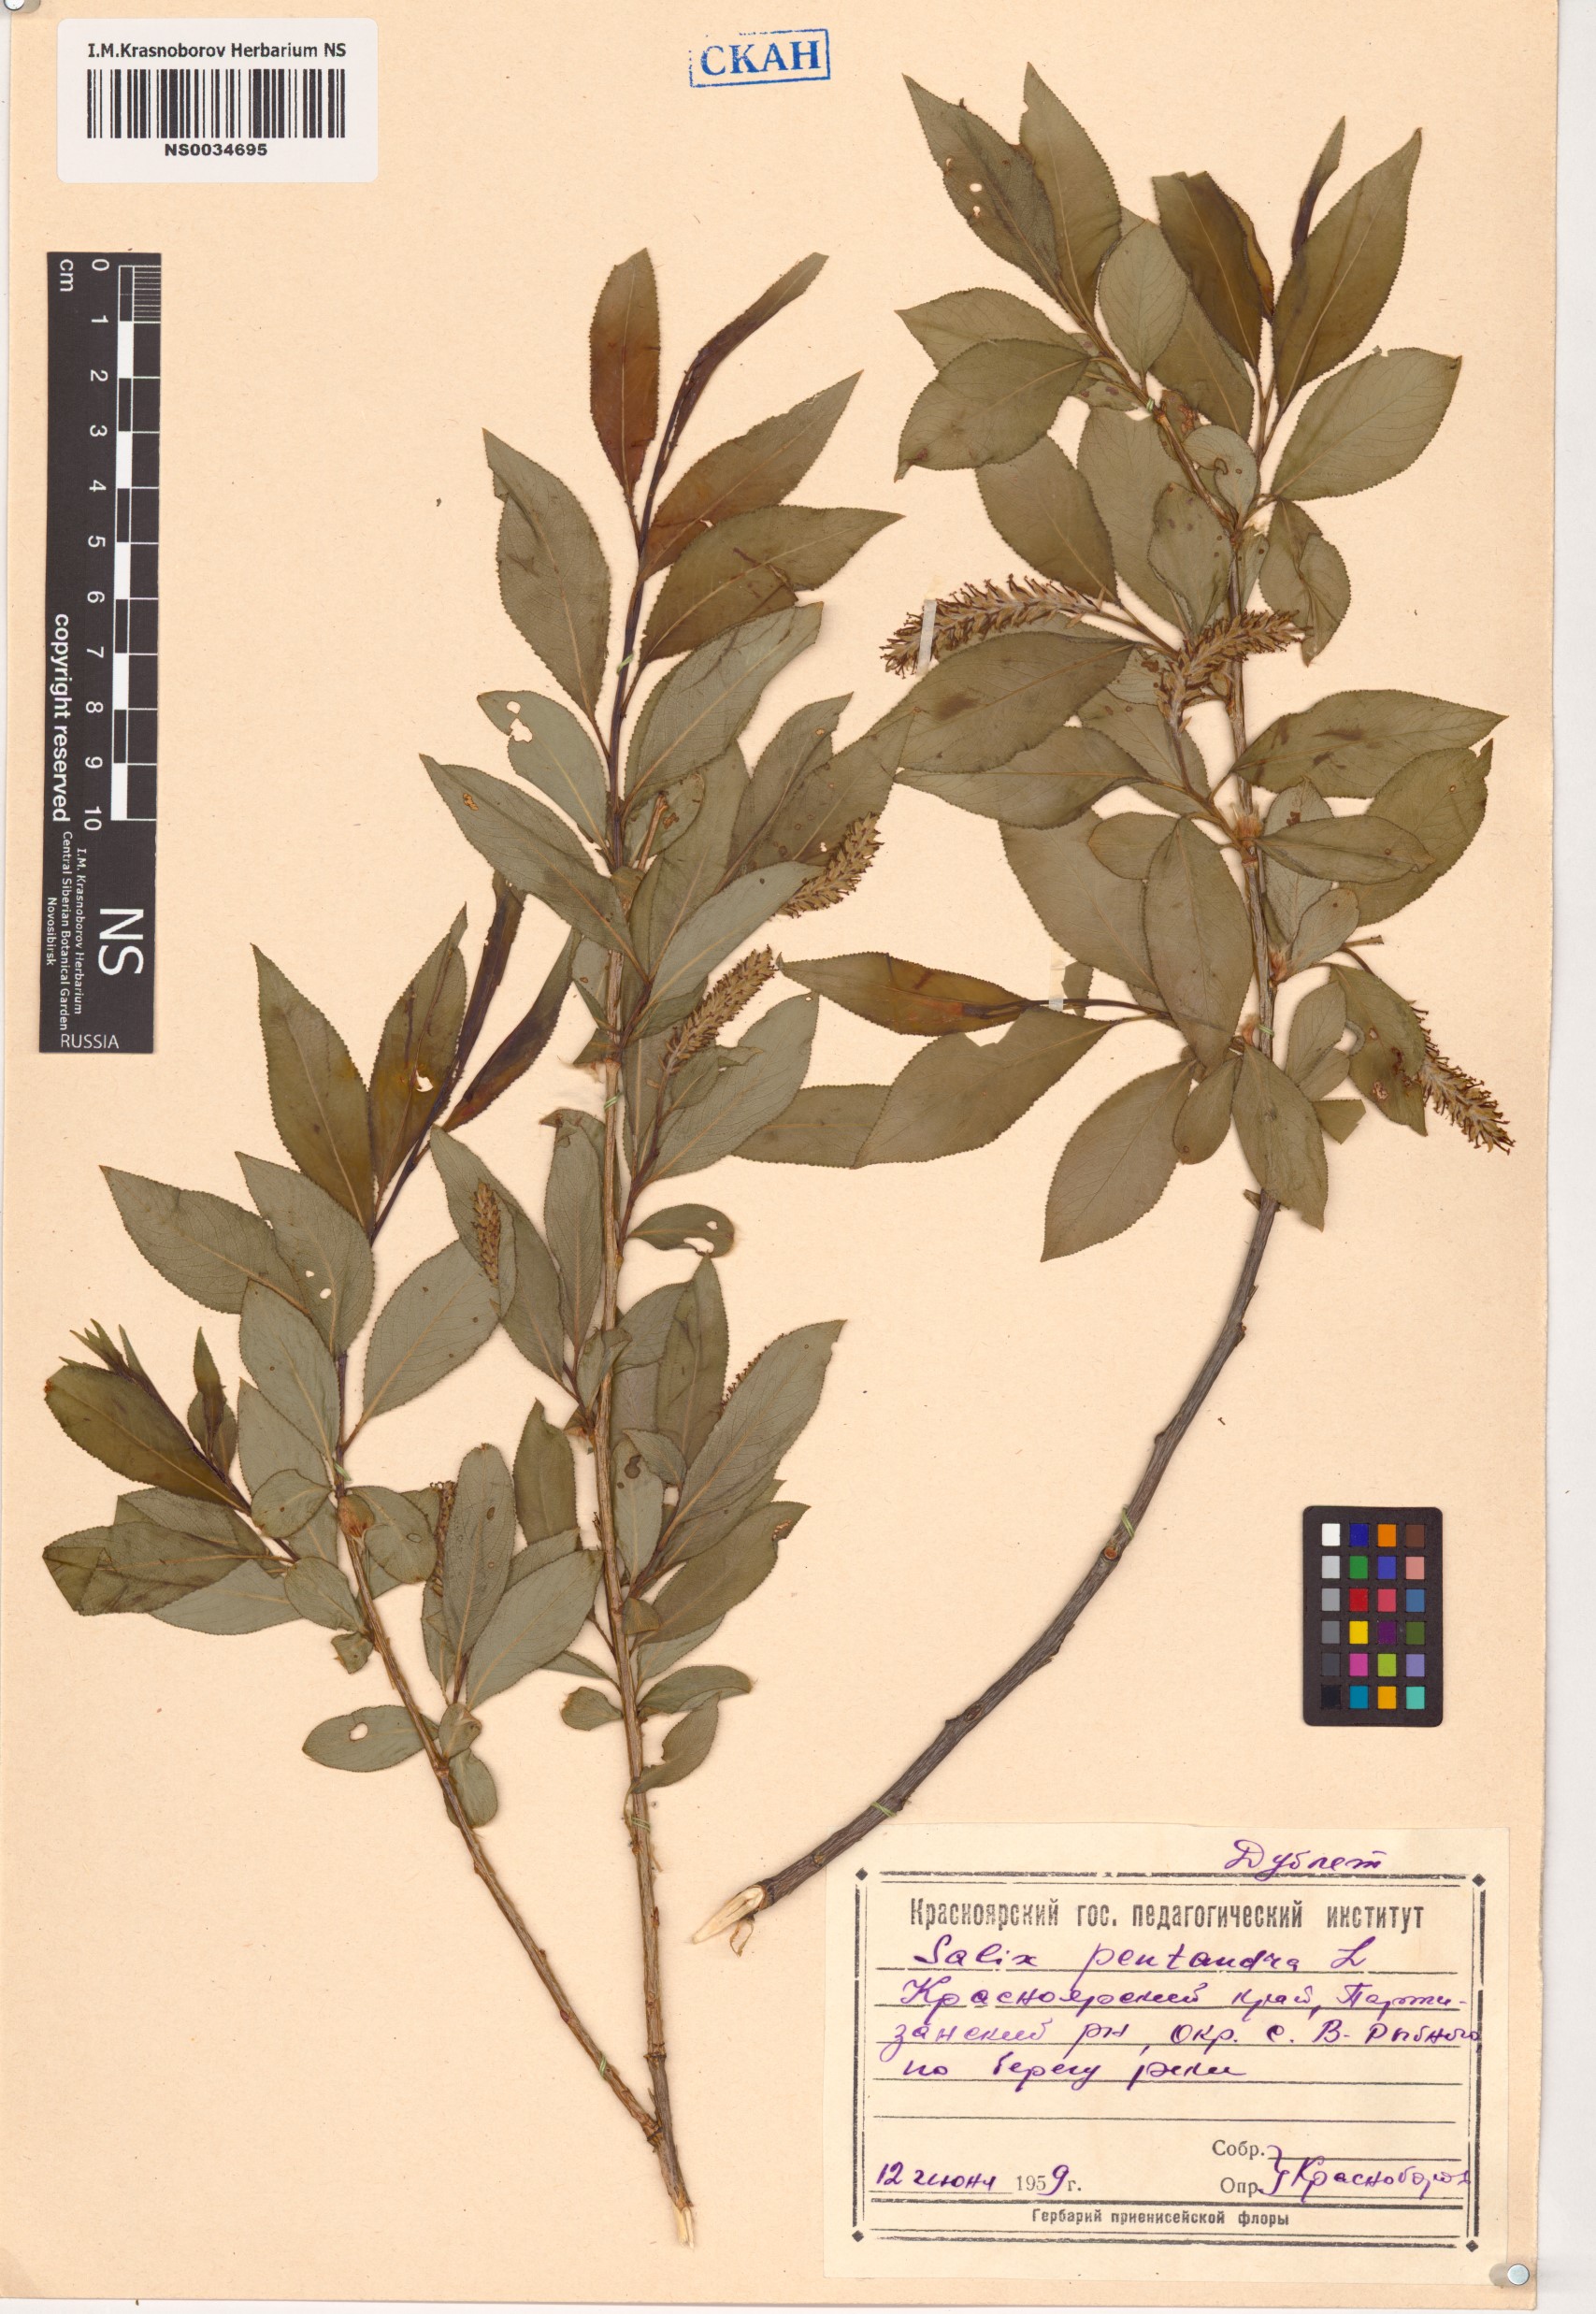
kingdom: Plantae
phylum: Tracheophyta
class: Magnoliopsida
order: Malpighiales
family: Salicaceae
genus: Salix
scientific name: Salix pentandra
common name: Bay willow
